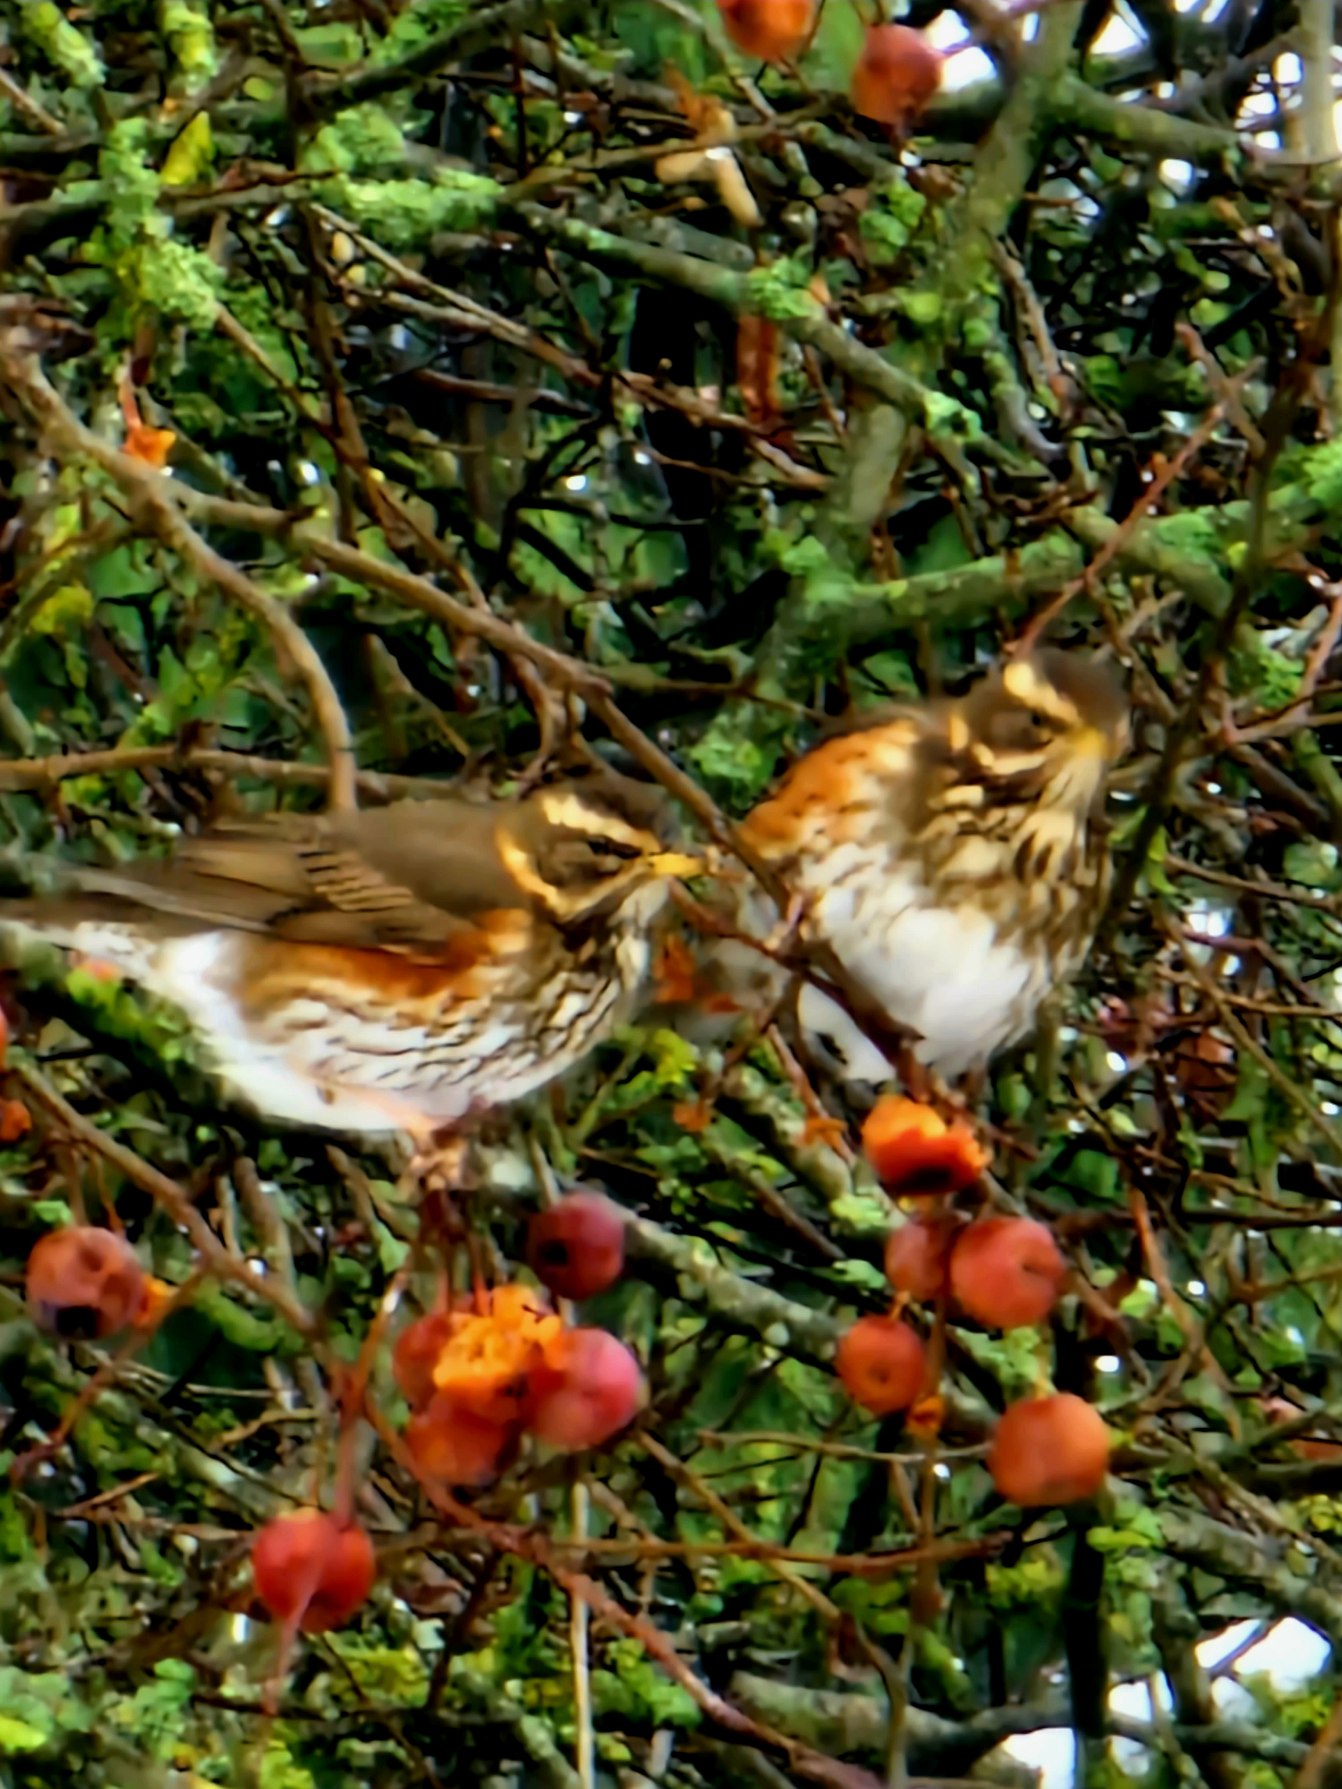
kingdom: Animalia
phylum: Chordata
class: Aves
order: Passeriformes
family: Turdidae
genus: Turdus
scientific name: Turdus iliacus
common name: Vindrossel
